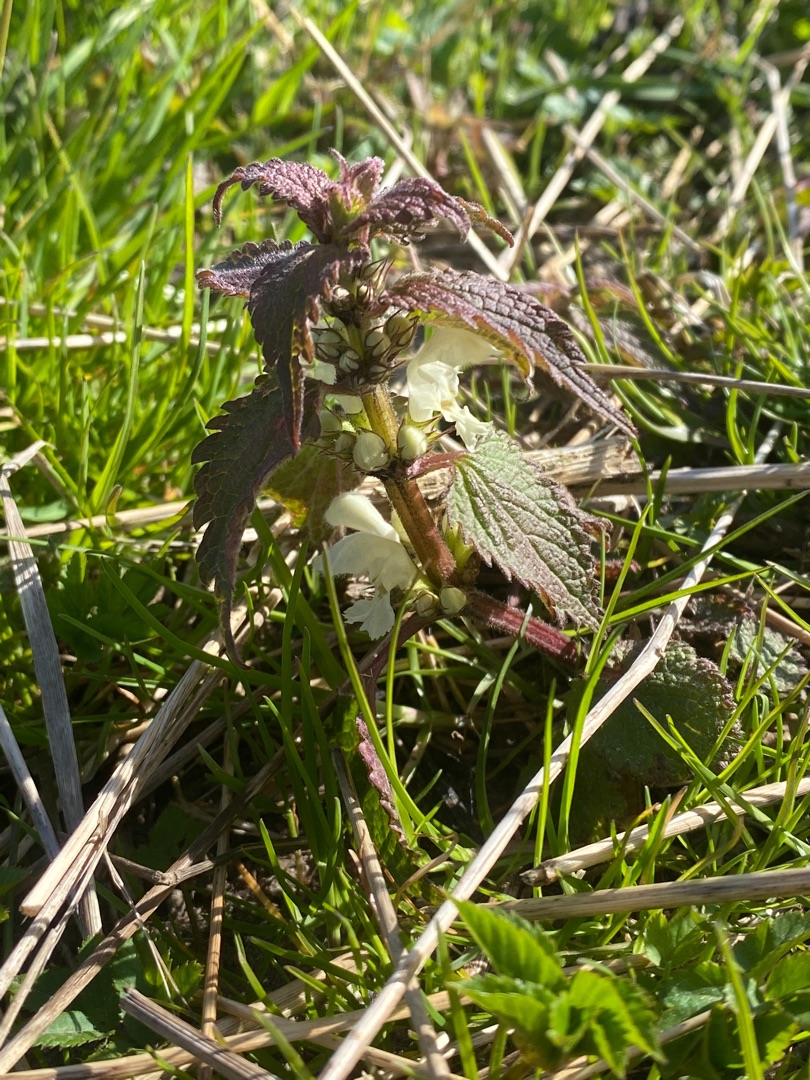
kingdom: Plantae
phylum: Tracheophyta
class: Magnoliopsida
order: Lamiales
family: Lamiaceae
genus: Lamium
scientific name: Lamium album
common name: Døvnælde
